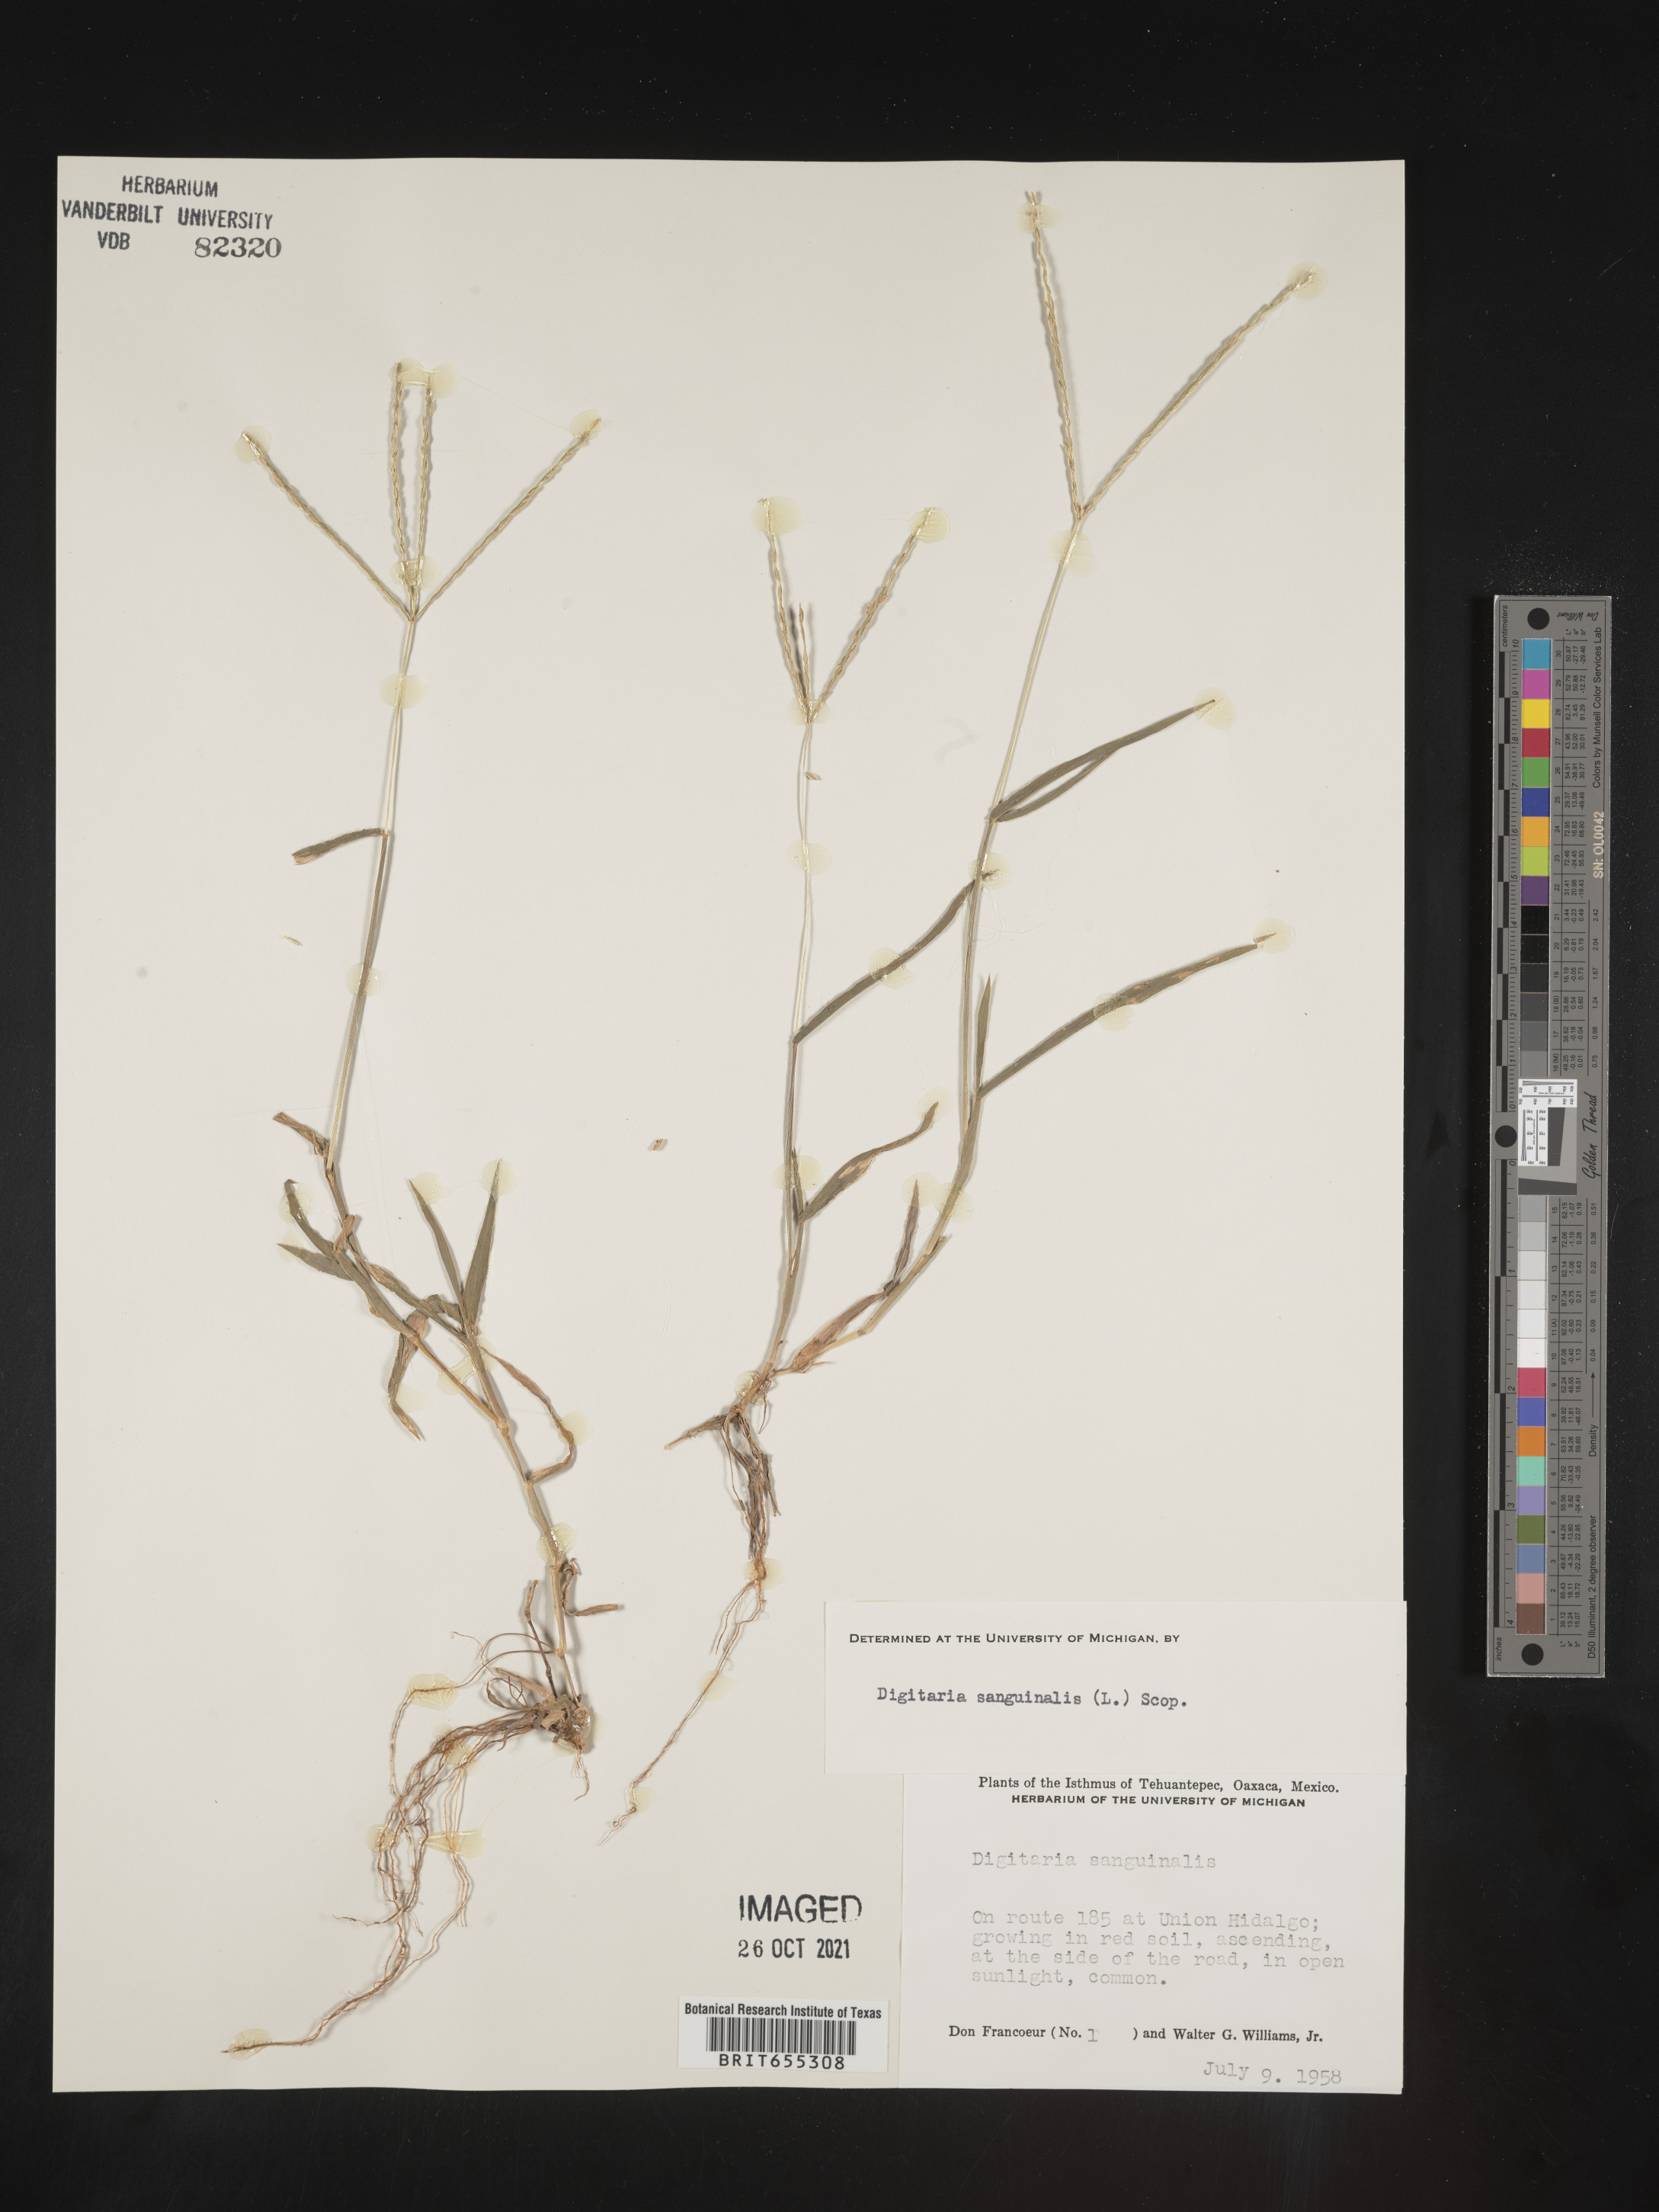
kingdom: Plantae
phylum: Tracheophyta
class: Liliopsida
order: Poales
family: Poaceae
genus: Digitaria
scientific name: Digitaria
